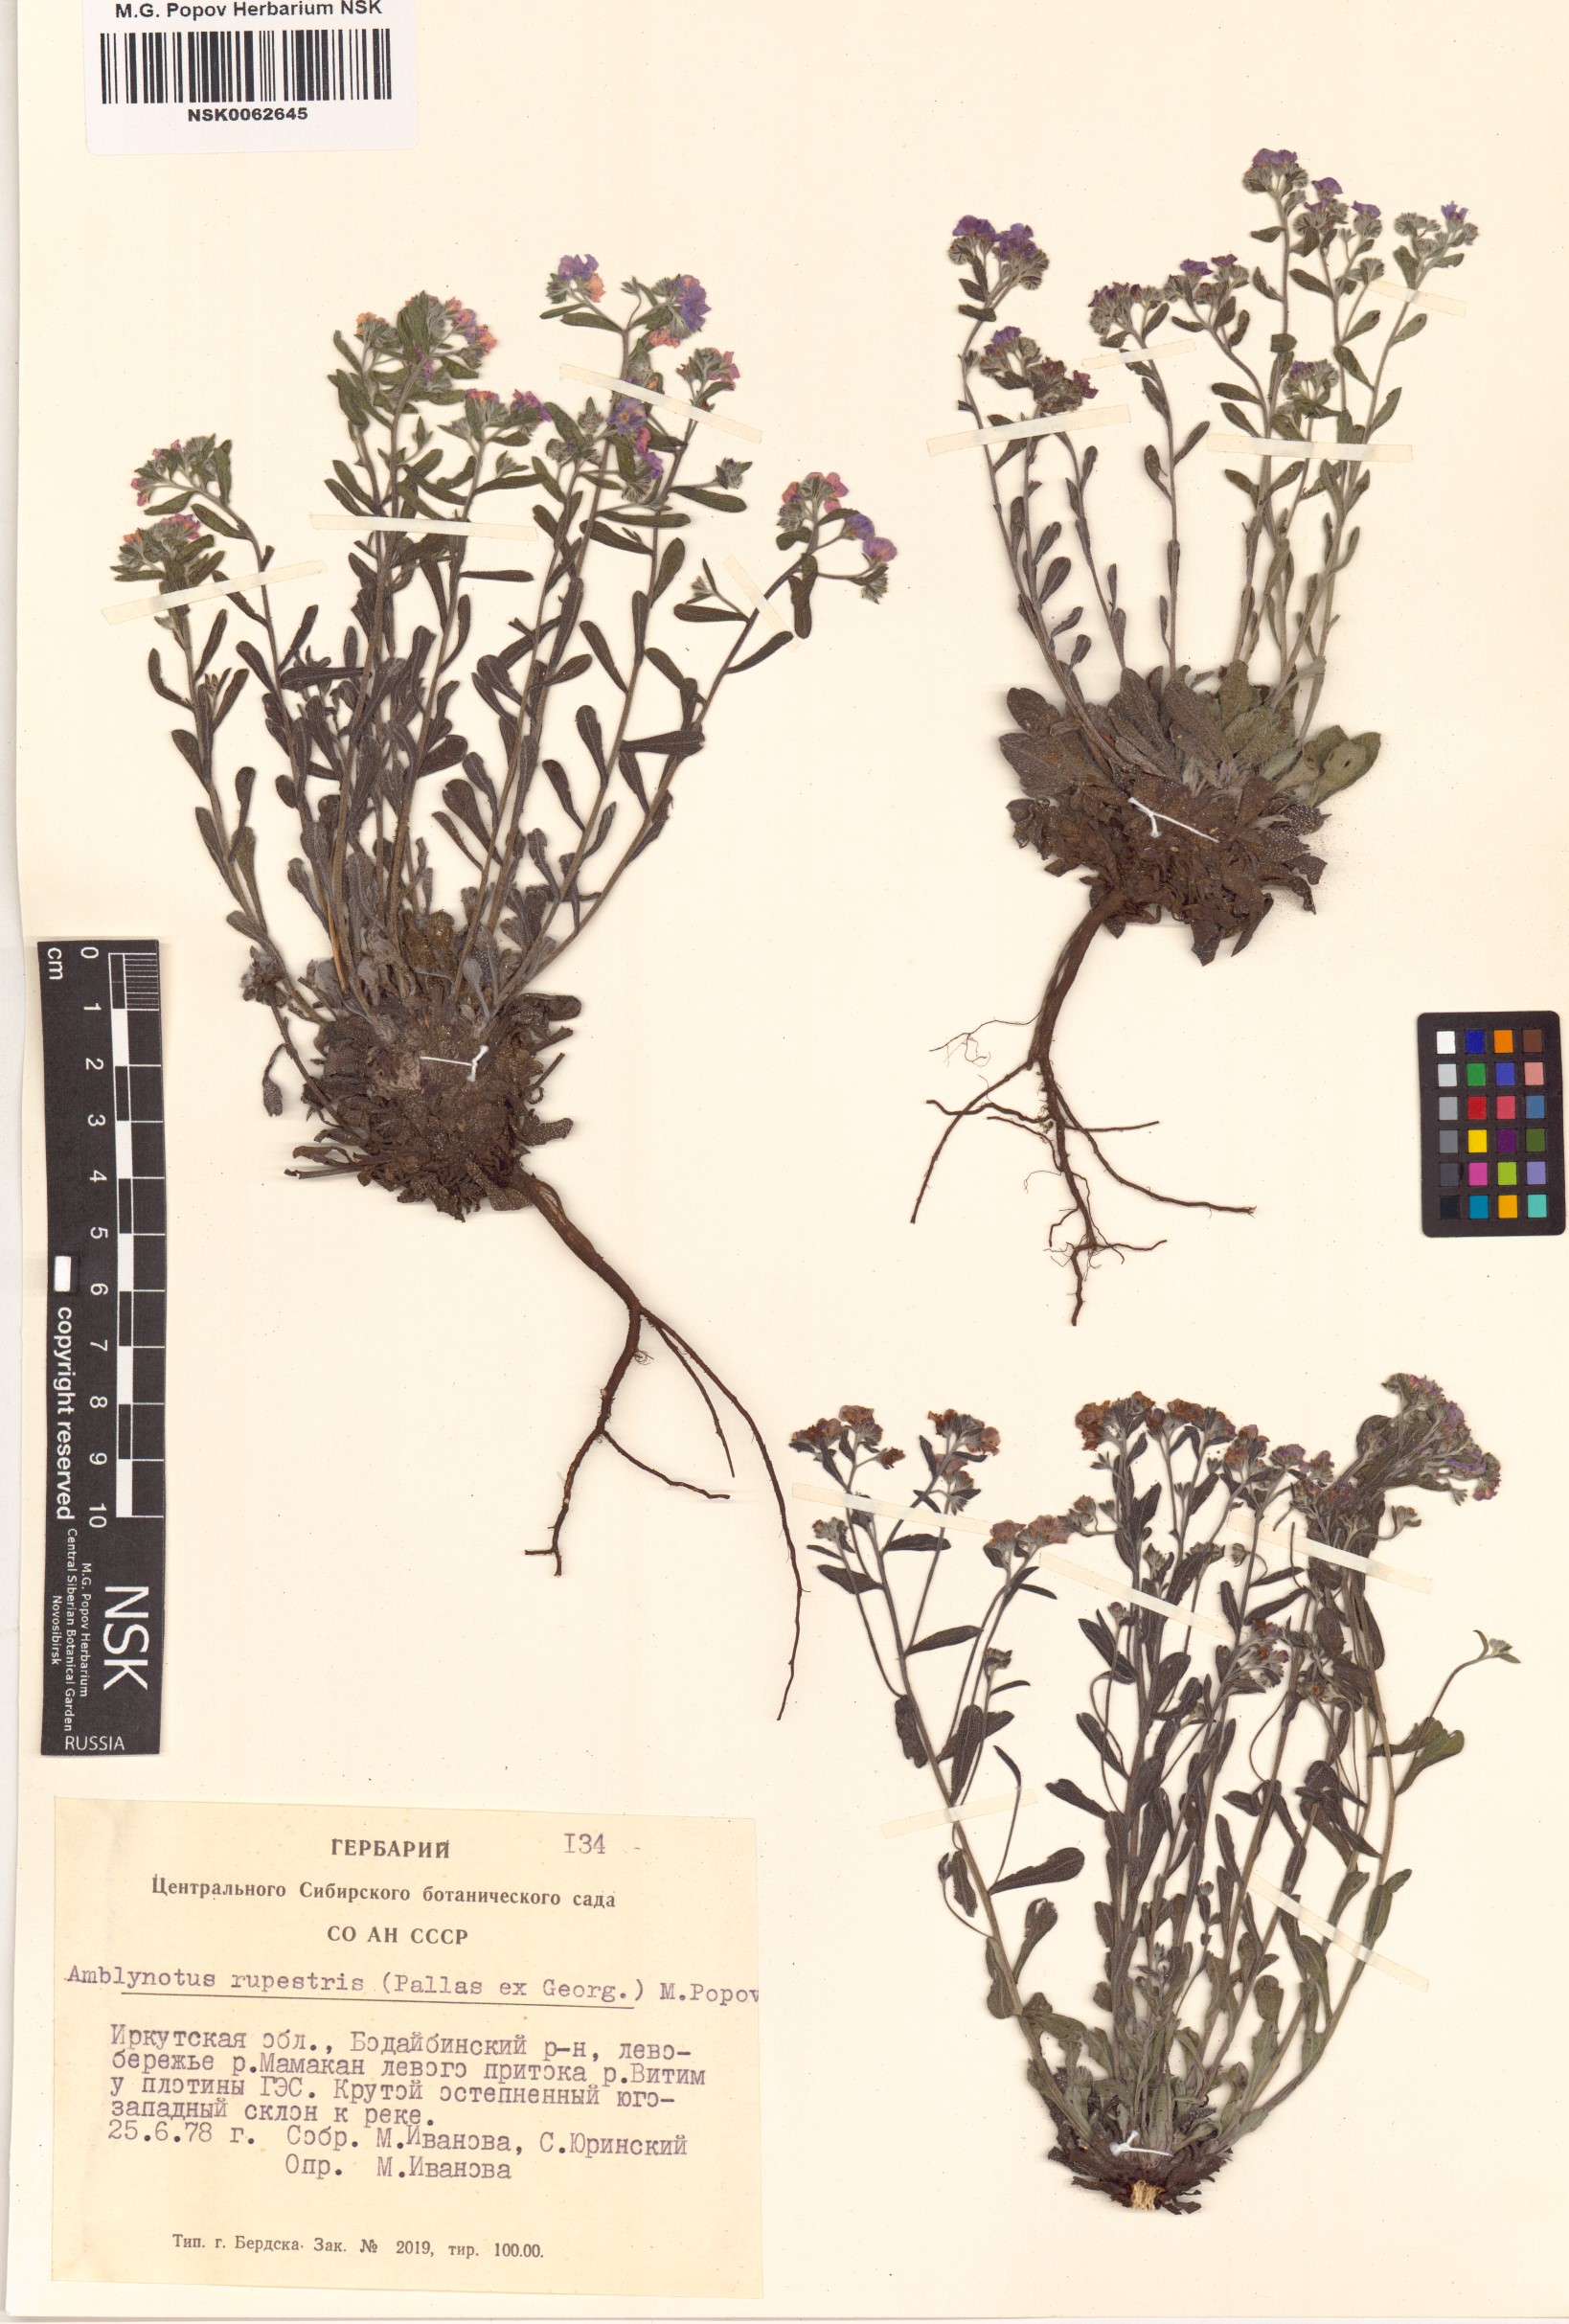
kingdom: Plantae
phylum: Tracheophyta
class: Magnoliopsida
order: Boraginales
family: Boraginaceae
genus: Eritrichium
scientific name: Eritrichium rupestre
